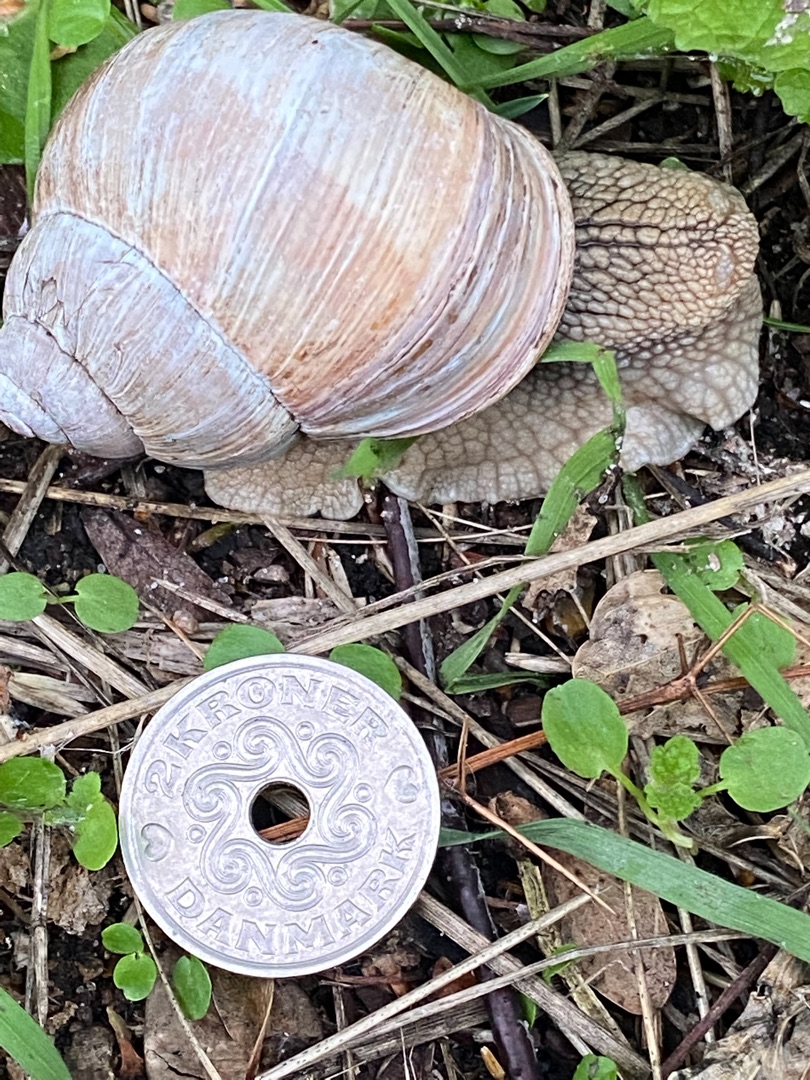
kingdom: Animalia
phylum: Mollusca
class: Gastropoda
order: Stylommatophora
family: Helicidae
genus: Helix
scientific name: Helix pomatia
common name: Vinbjergsnegl
